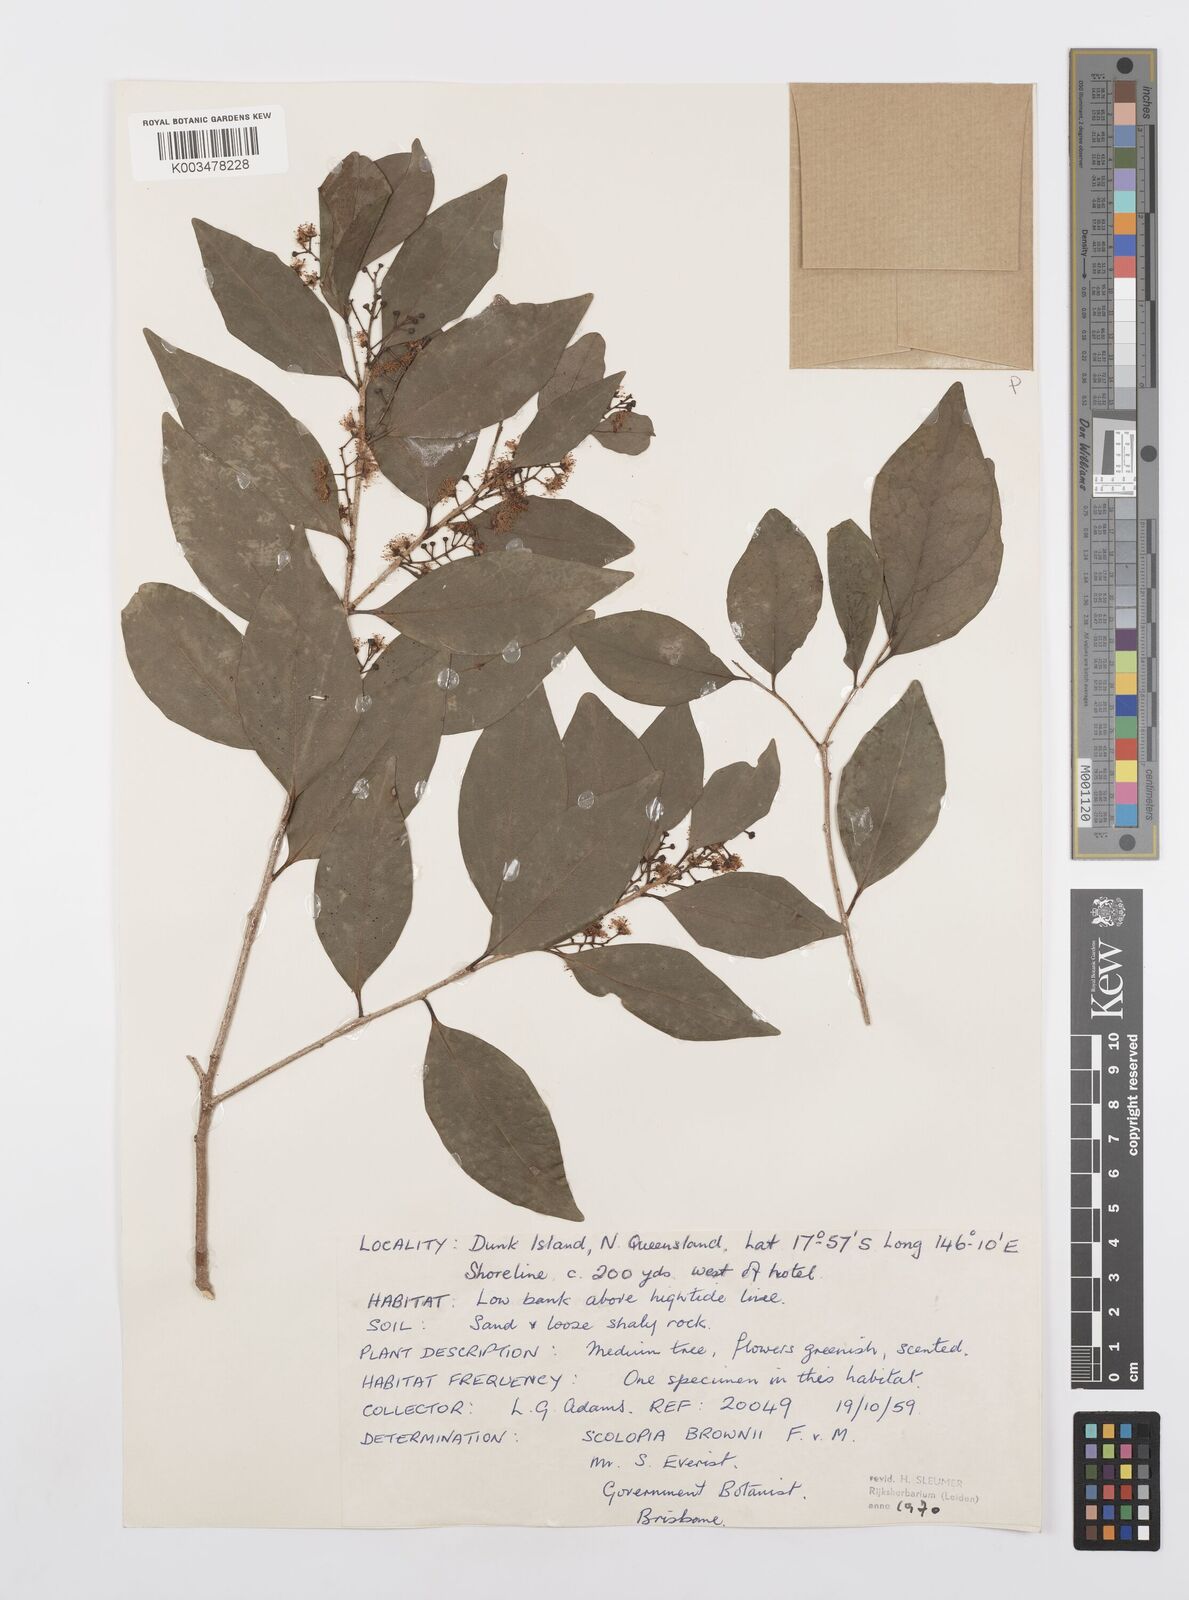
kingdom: Plantae
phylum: Tracheophyta
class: Magnoliopsida
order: Malpighiales
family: Salicaceae
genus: Scolopia
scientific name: Scolopia braunii
